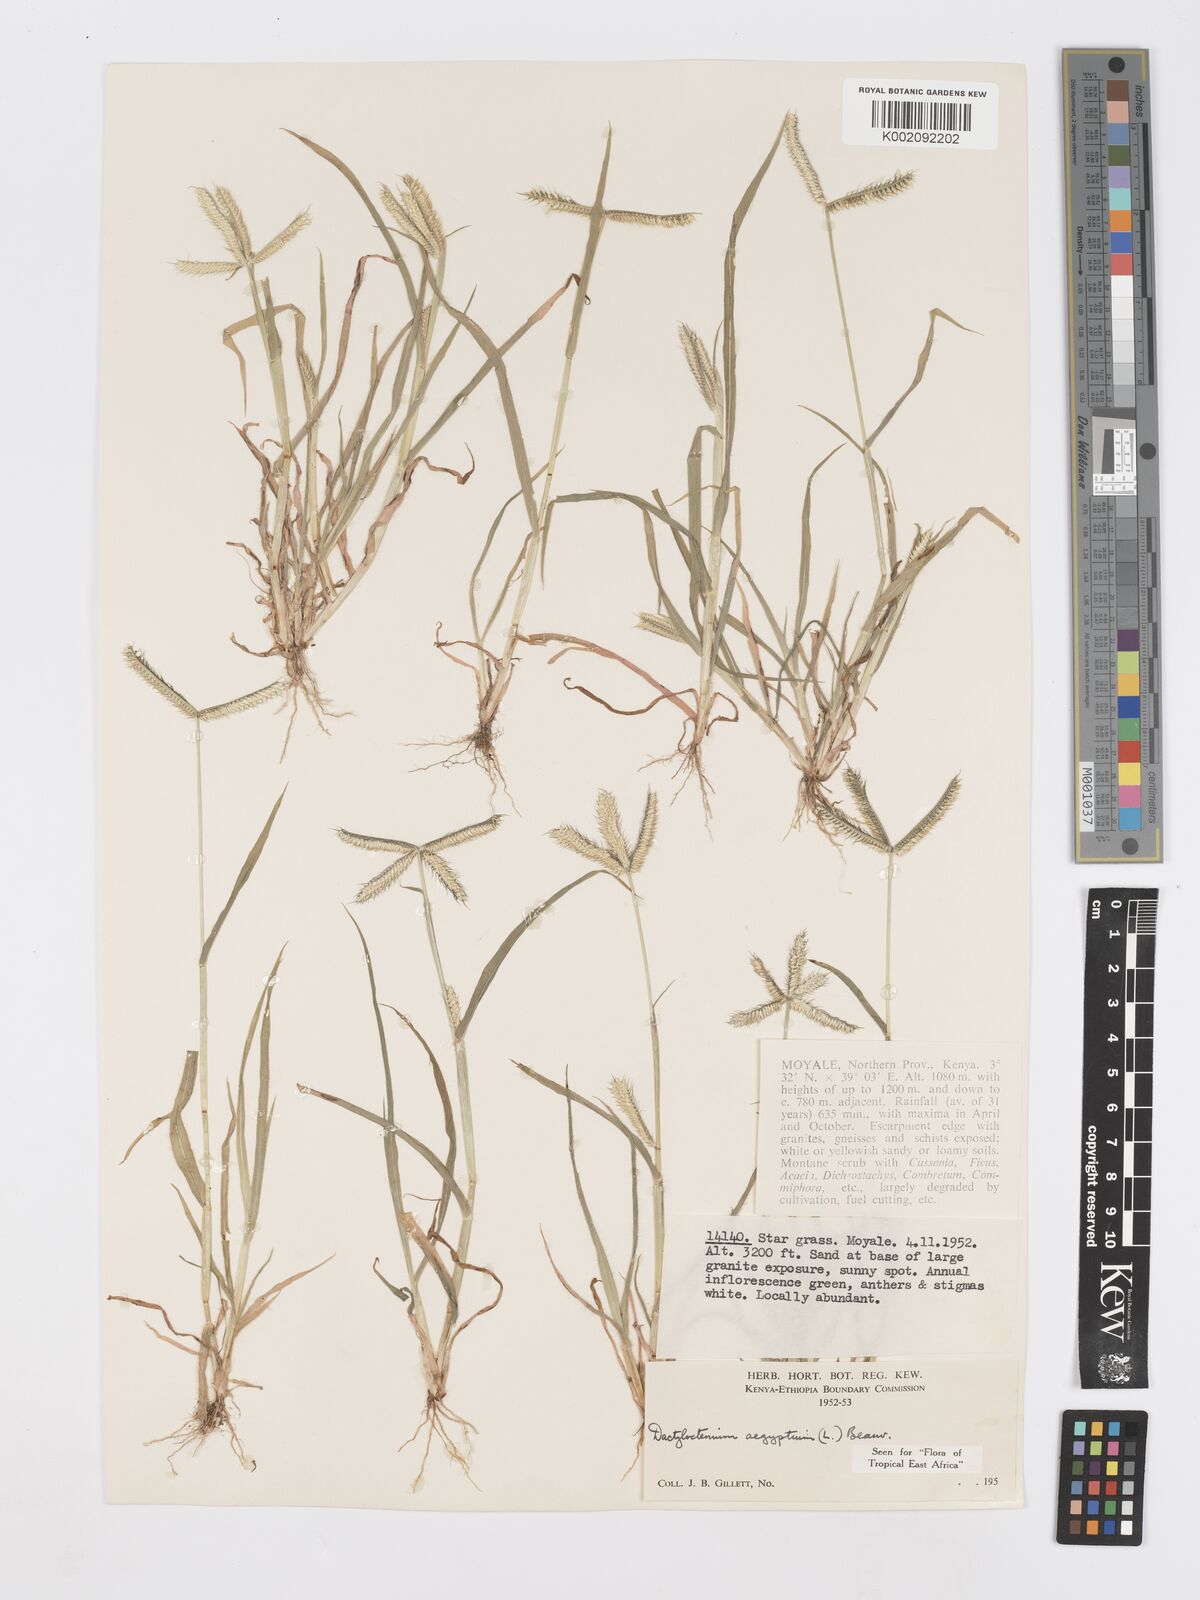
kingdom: Plantae
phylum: Tracheophyta
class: Liliopsida
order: Poales
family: Poaceae
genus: Dactyloctenium
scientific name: Dactyloctenium aegyptium
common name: Egyptian grass
